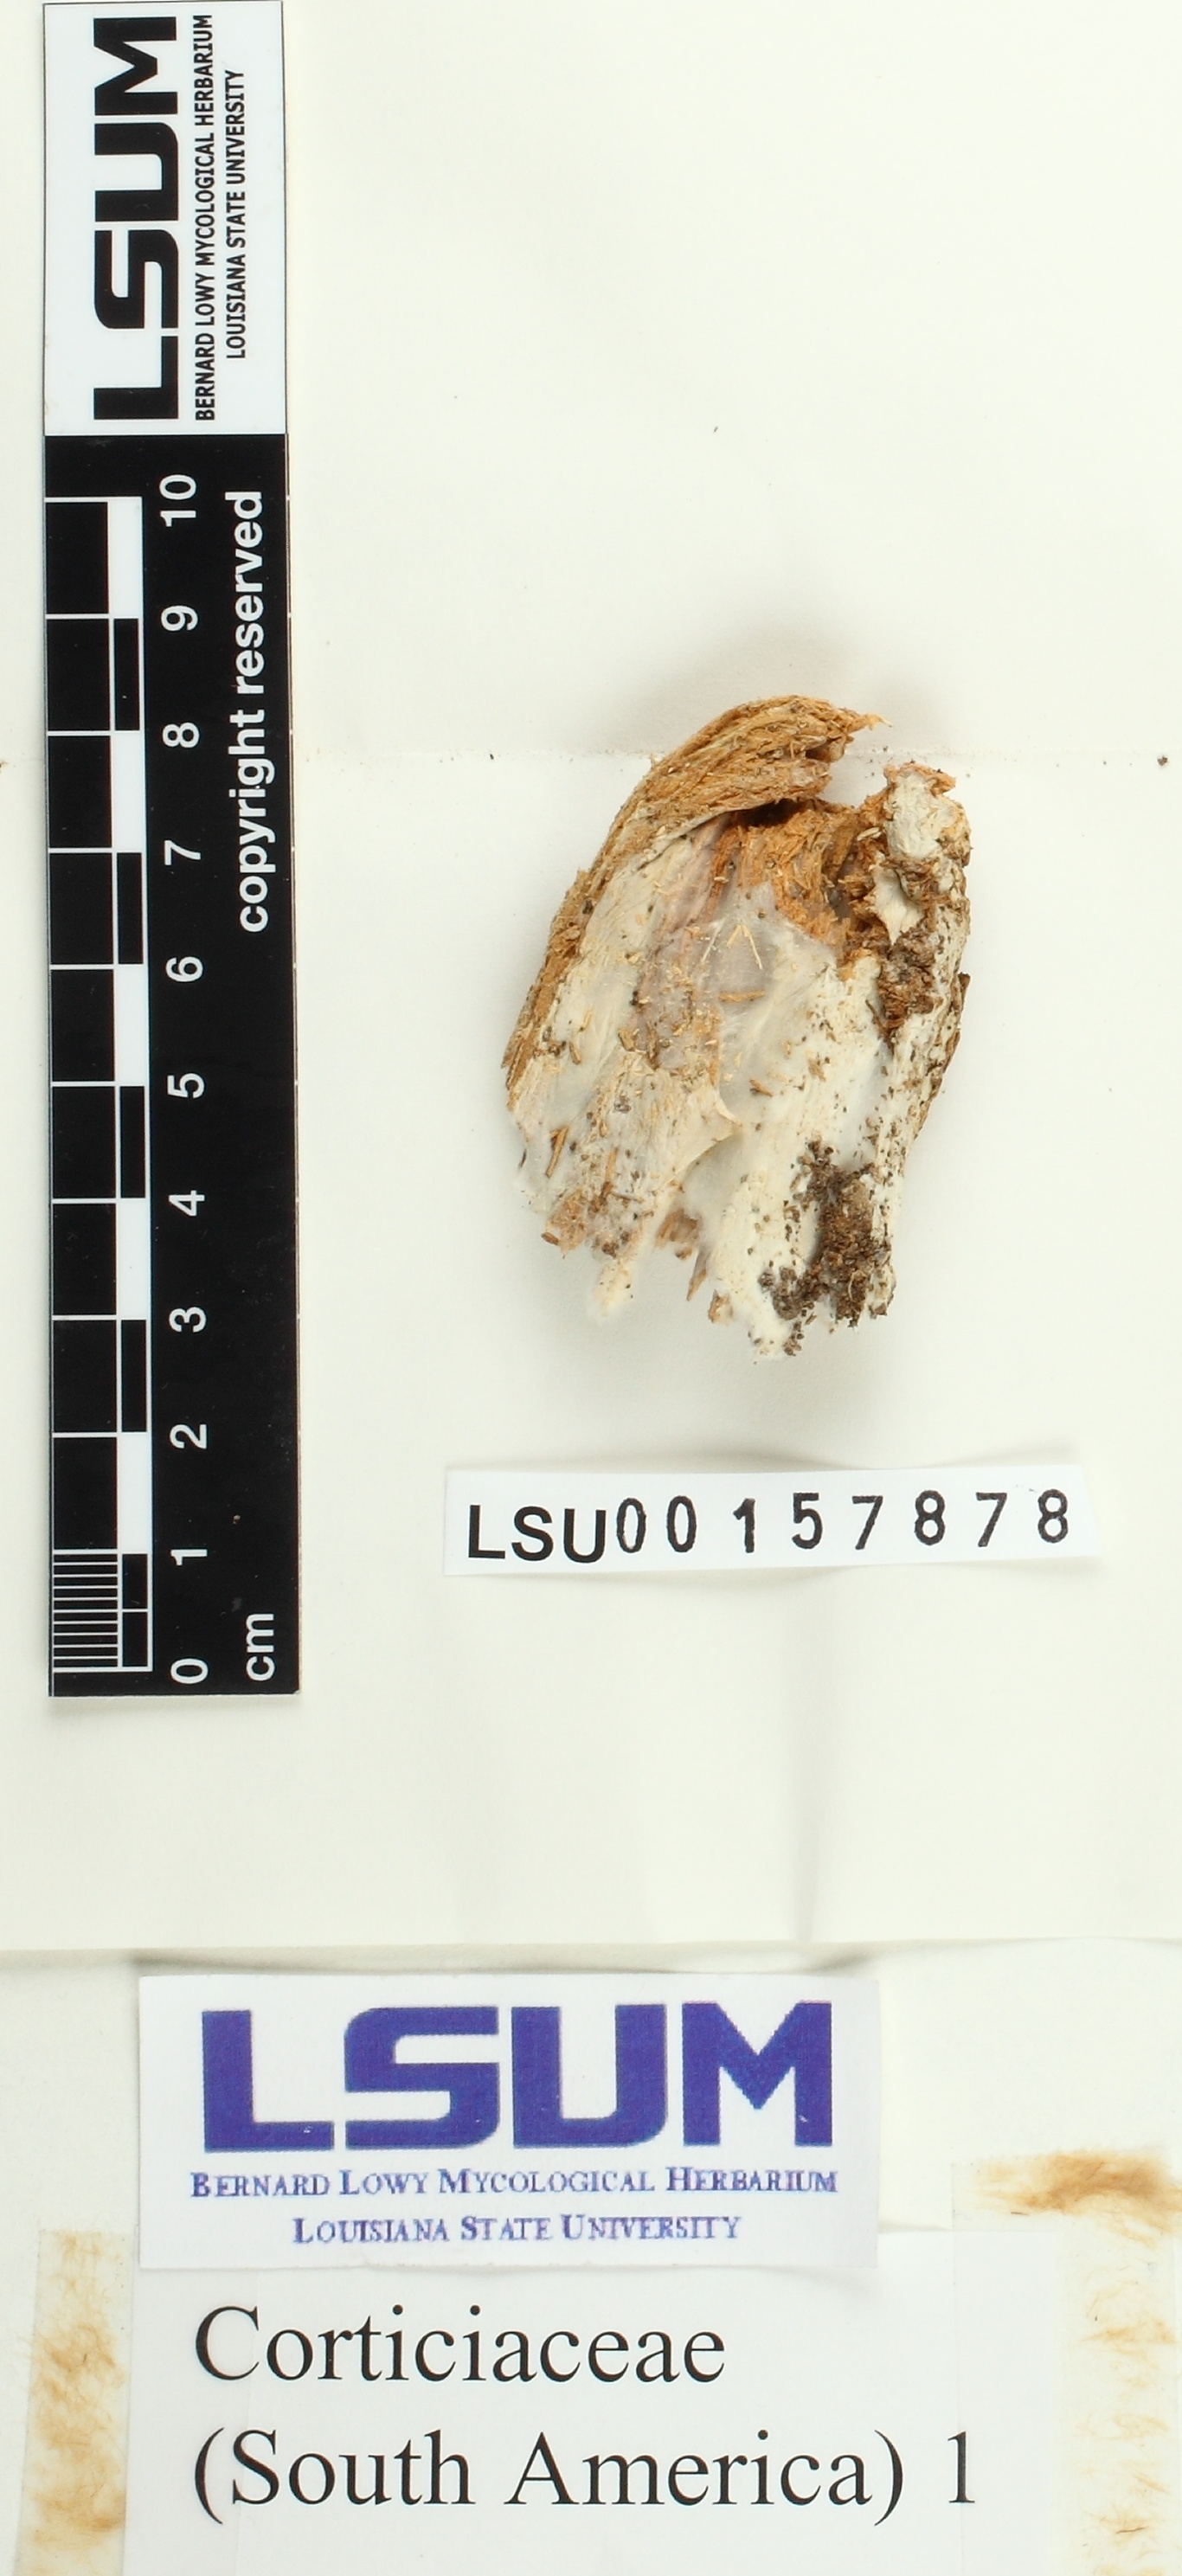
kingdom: Fungi
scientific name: Fungi
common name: Fungi
